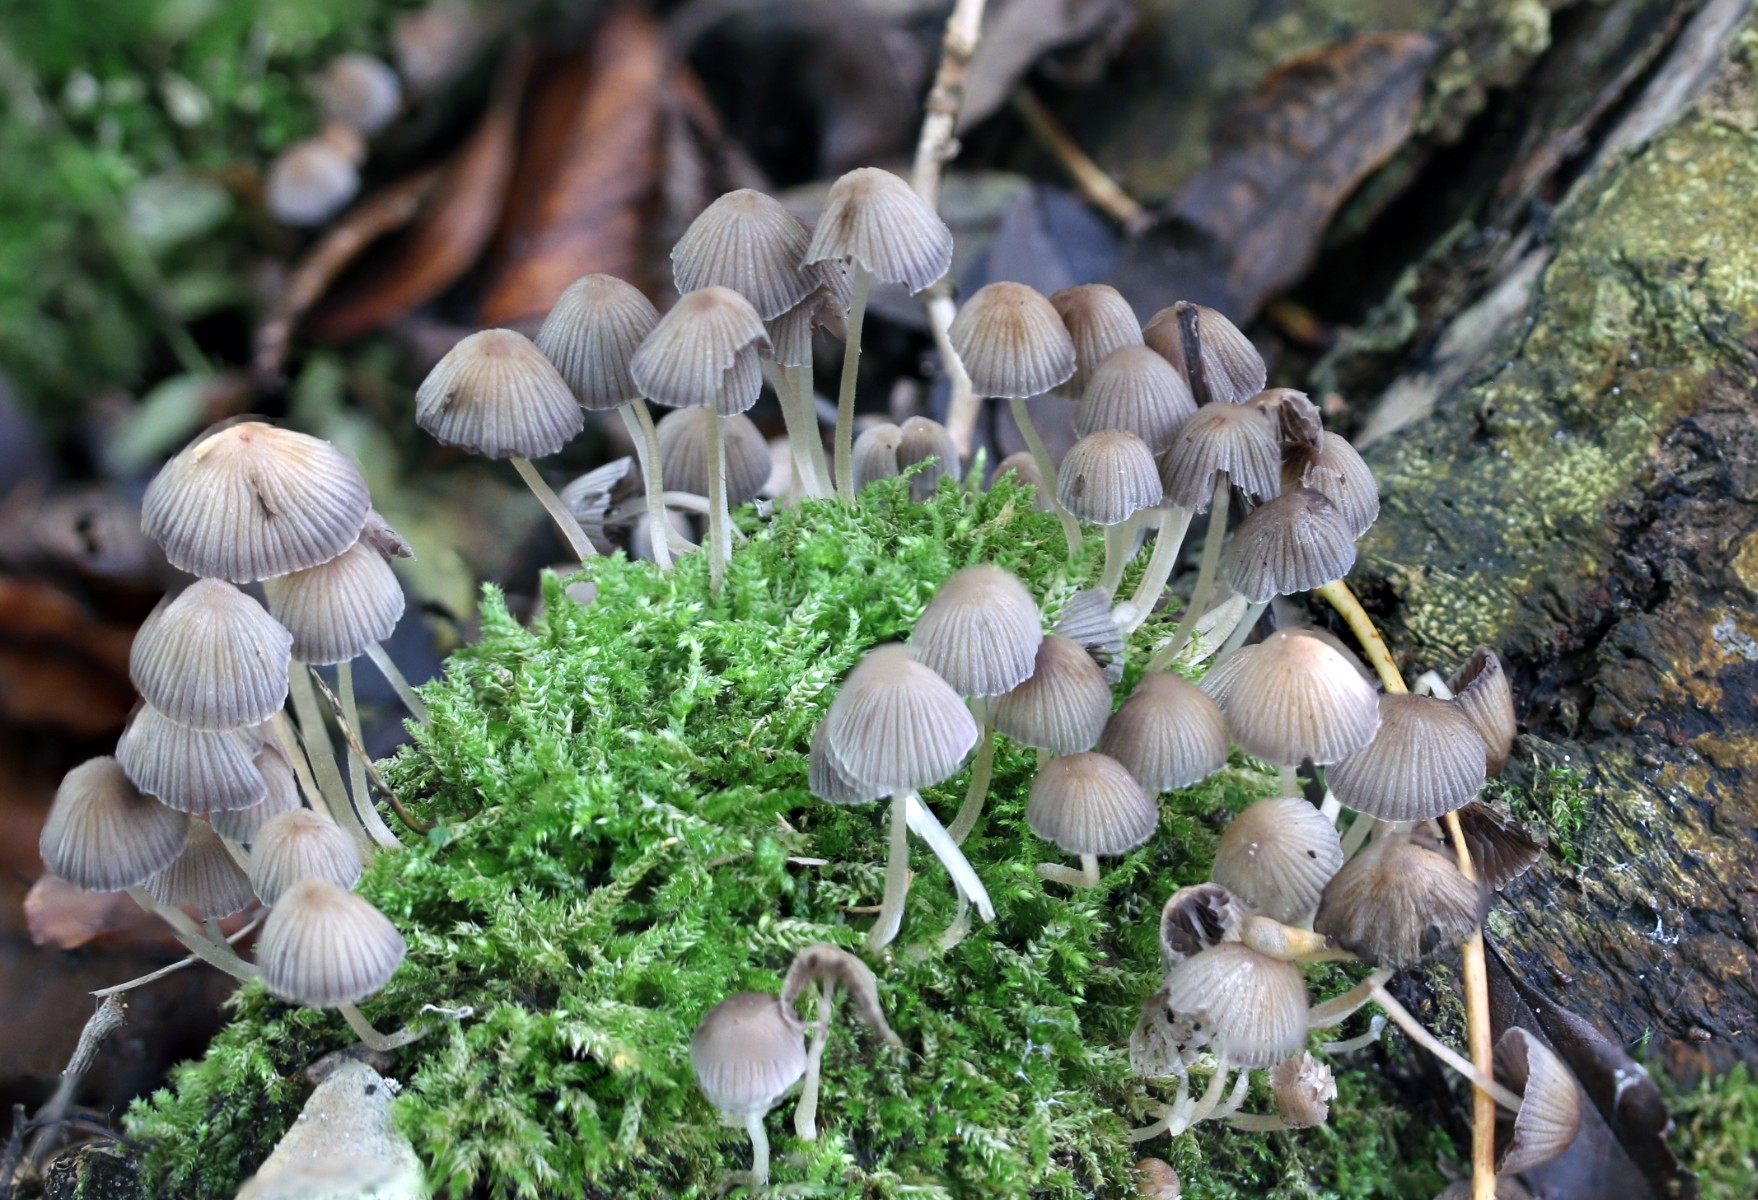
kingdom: Fungi
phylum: Basidiomycota
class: Agaricomycetes
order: Agaricales
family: Psathyrellaceae
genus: Coprinellus
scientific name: Coprinellus disseminatus
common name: bredsået blækhat
